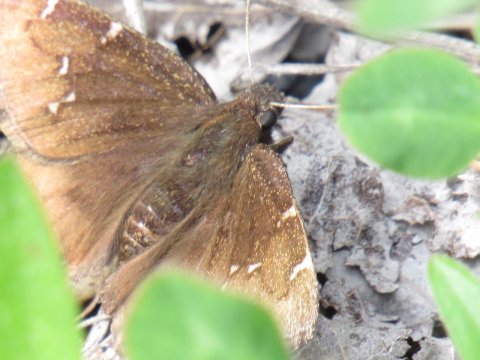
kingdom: Animalia
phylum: Arthropoda
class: Insecta
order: Lepidoptera
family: Hesperiidae
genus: Autochton
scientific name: Autochton
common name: Northern Cloudywing
